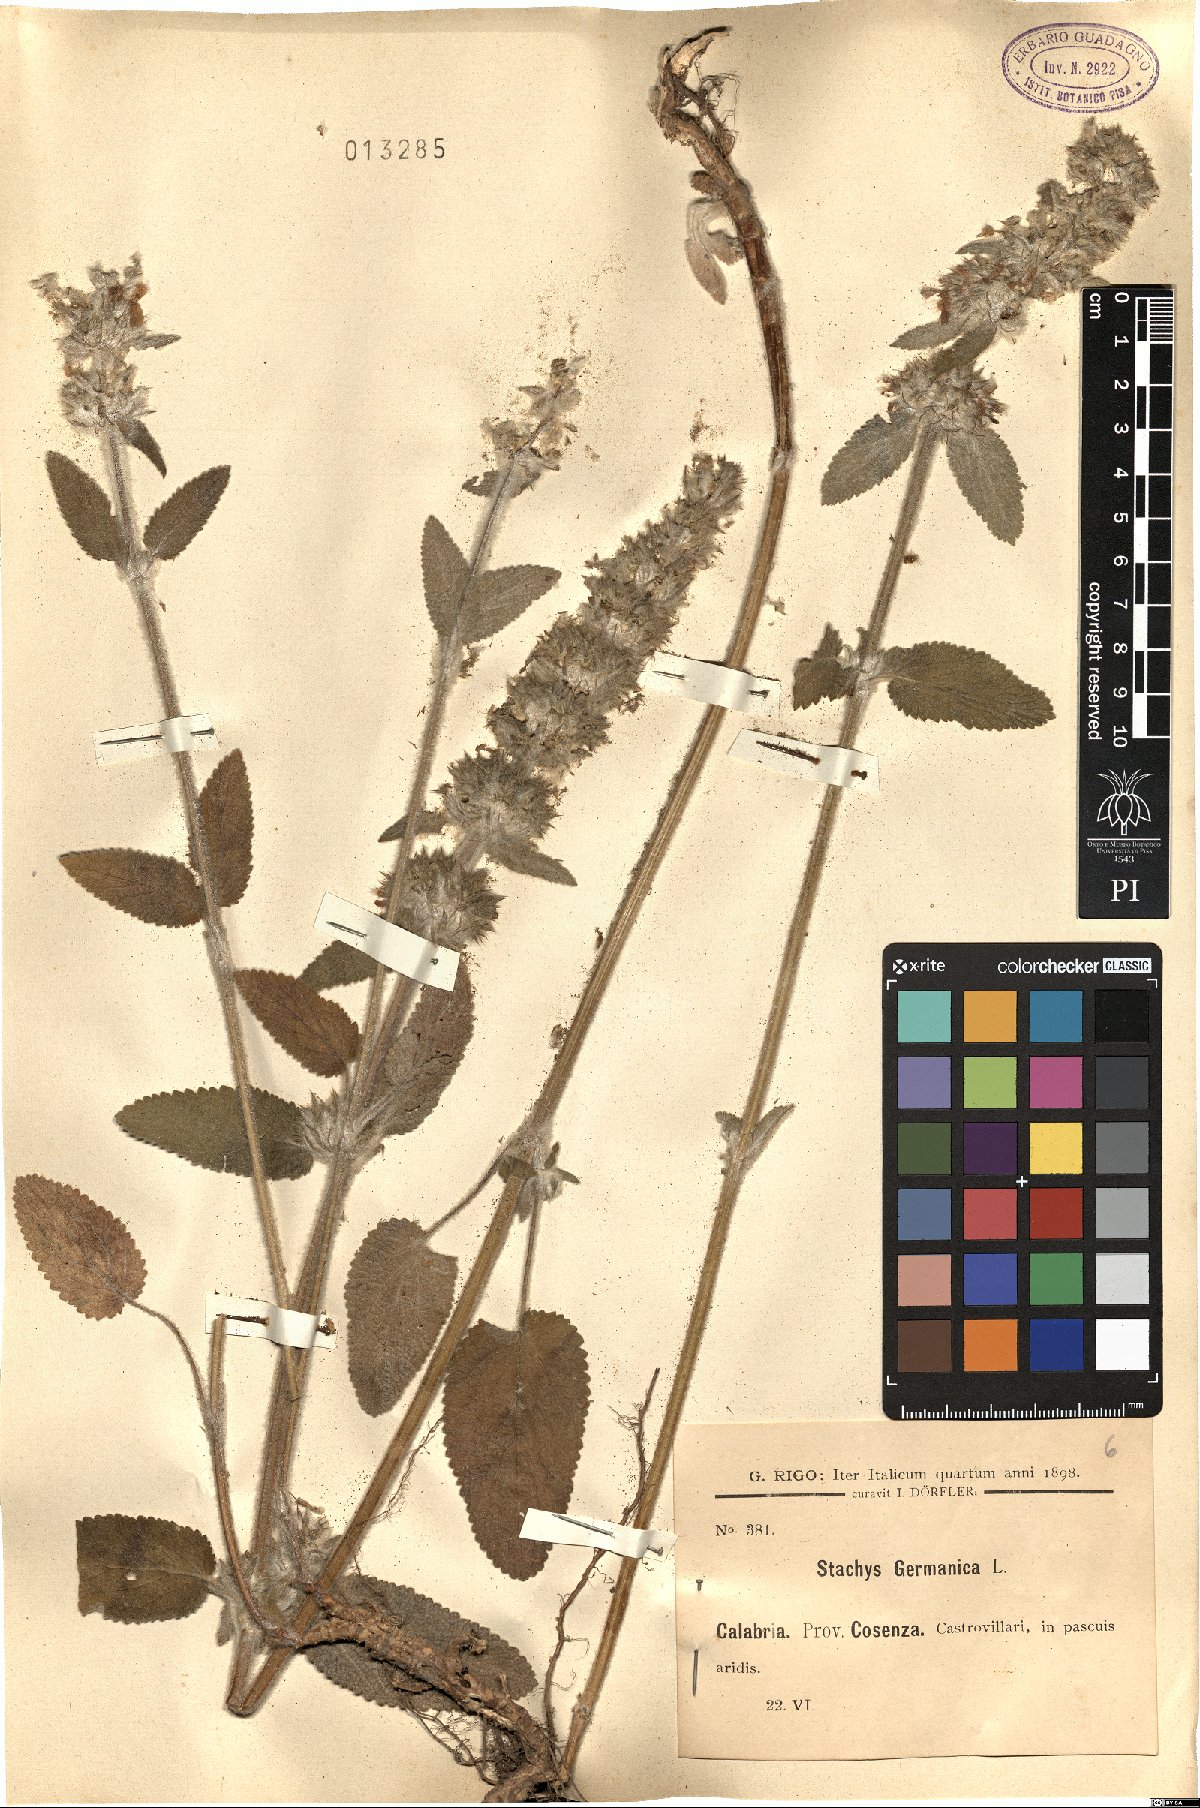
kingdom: Plantae
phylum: Tracheophyta
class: Magnoliopsida
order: Lamiales
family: Lamiaceae
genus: Stachys
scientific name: Stachys germanica
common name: Downy woundwort
